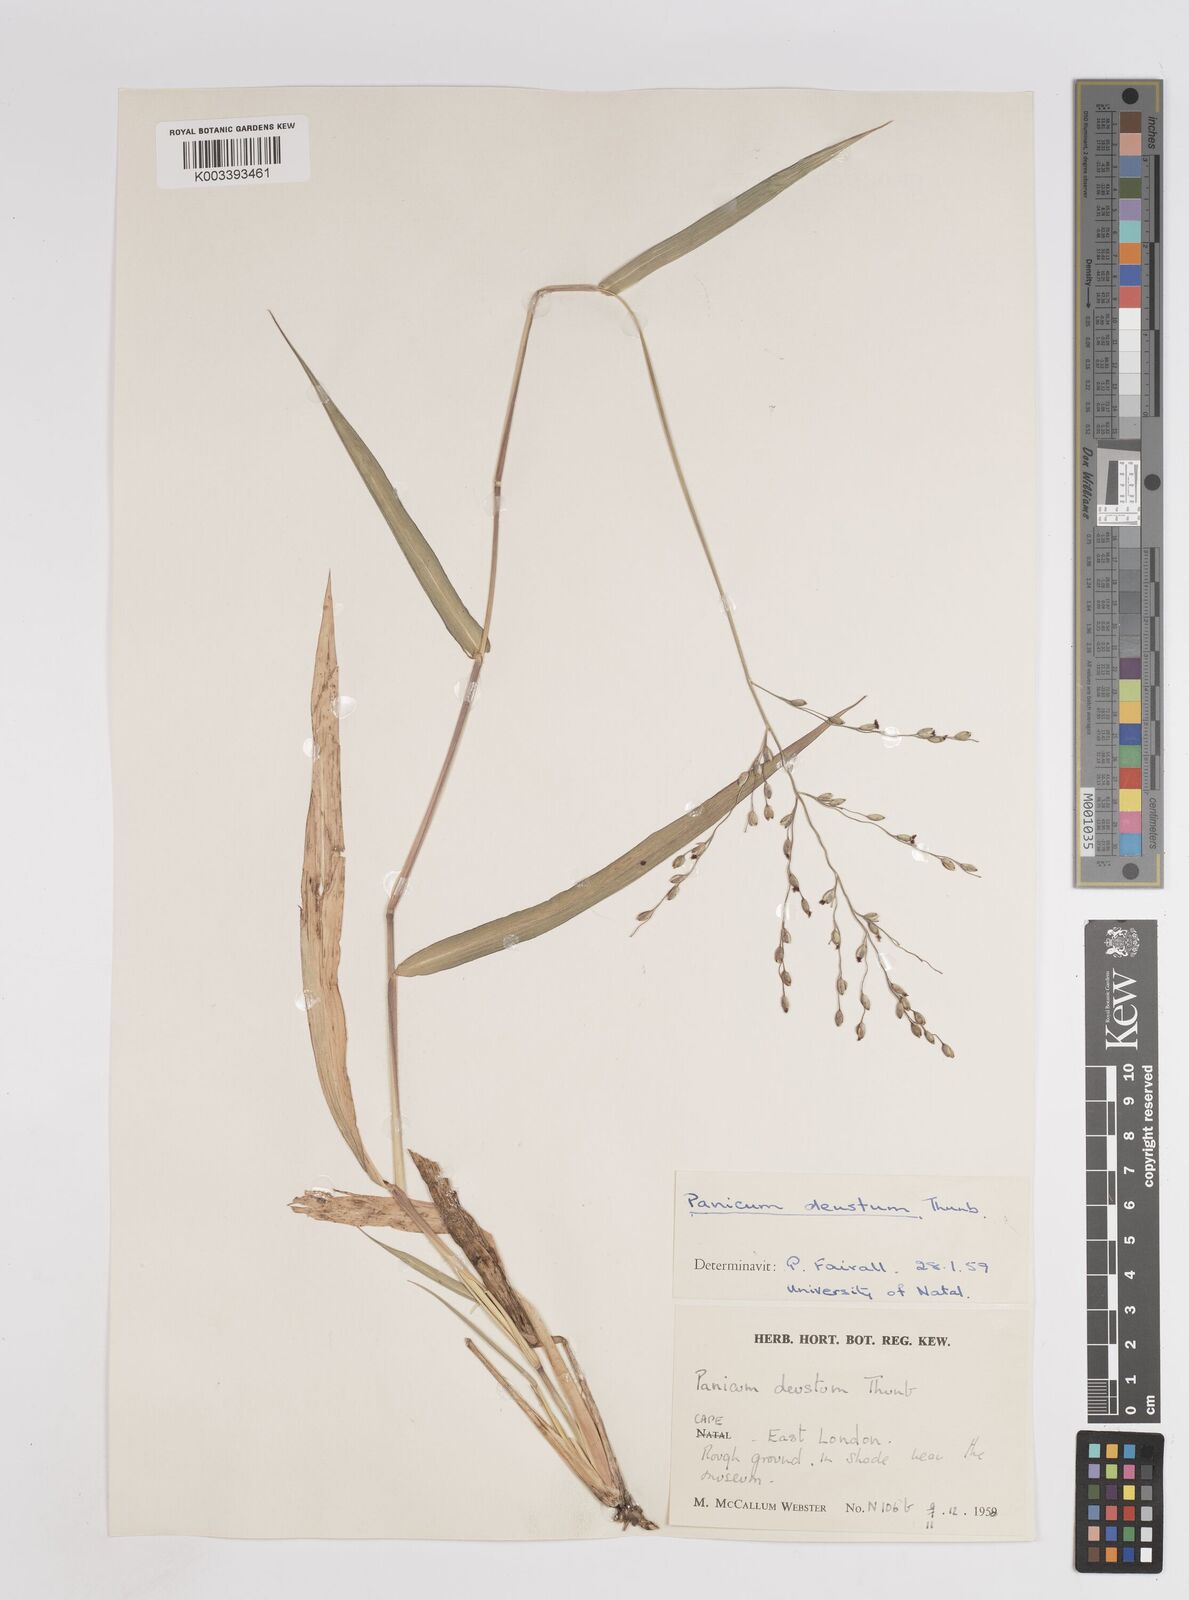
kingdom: Plantae
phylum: Tracheophyta
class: Liliopsida
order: Poales
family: Poaceae
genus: Panicum
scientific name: Panicum deustum
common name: Reed panicum
